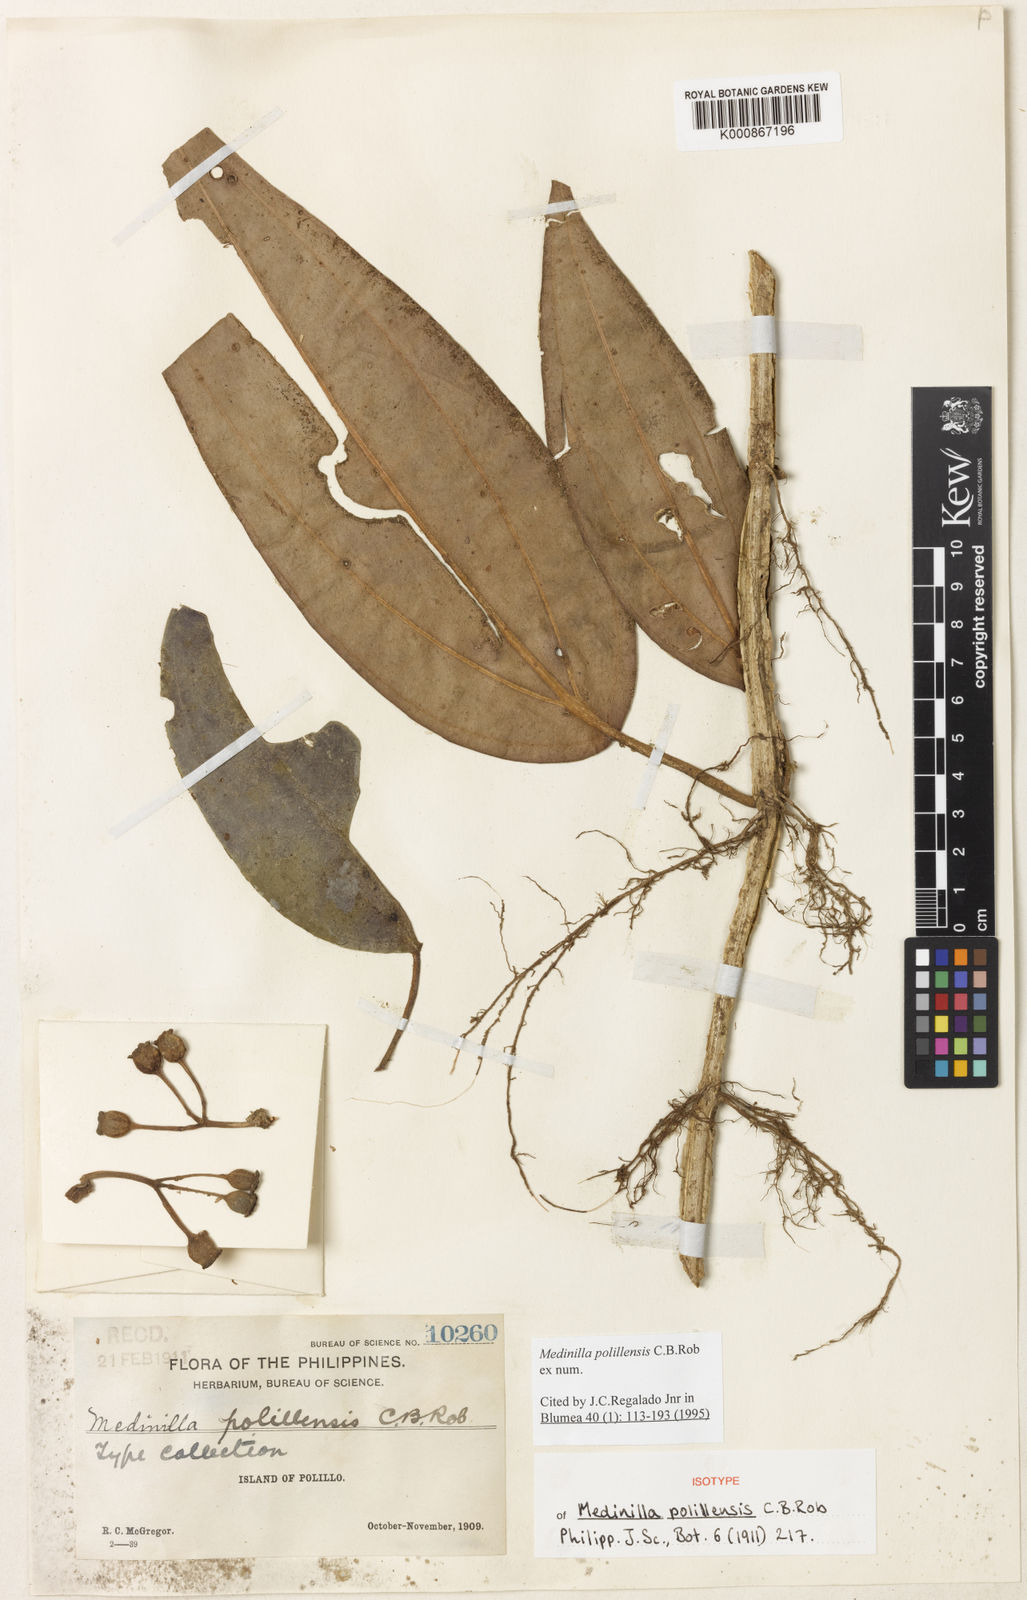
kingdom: Plantae
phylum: Tracheophyta
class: Magnoliopsida
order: Myrtales
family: Melastomataceae
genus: Medinilla
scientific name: Medinilla polillensis
